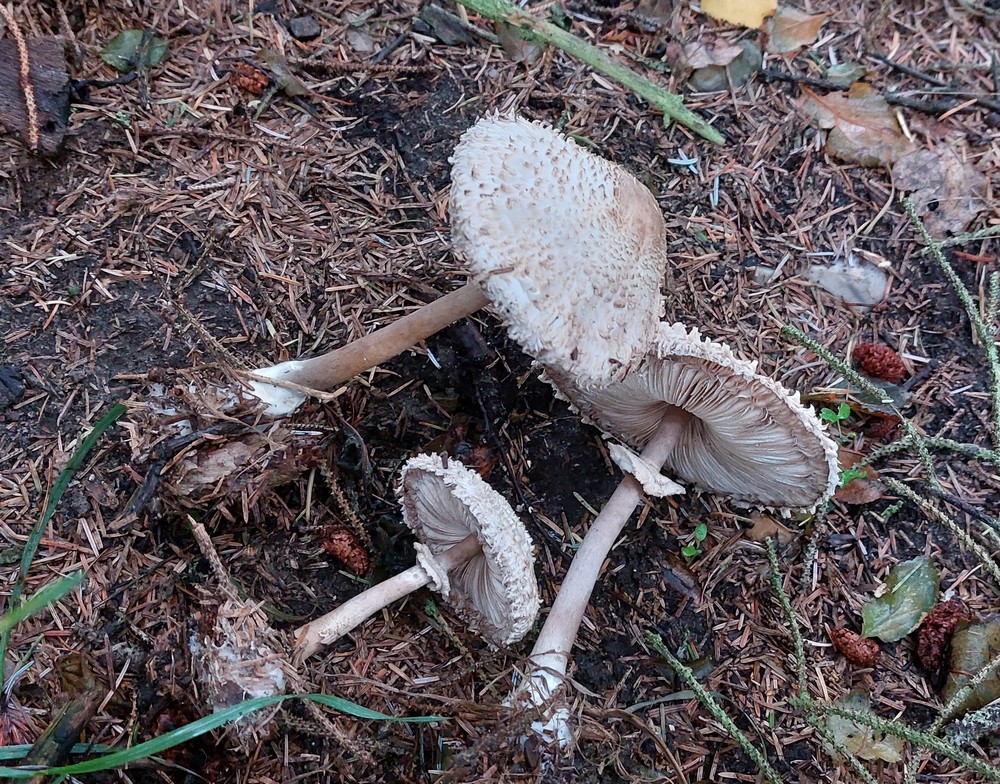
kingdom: Fungi
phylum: Basidiomycota
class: Agaricomycetes
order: Agaricales
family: Agaricaceae
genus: Leucoagaricus
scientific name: Leucoagaricus nympharum
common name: gran-silkehat
